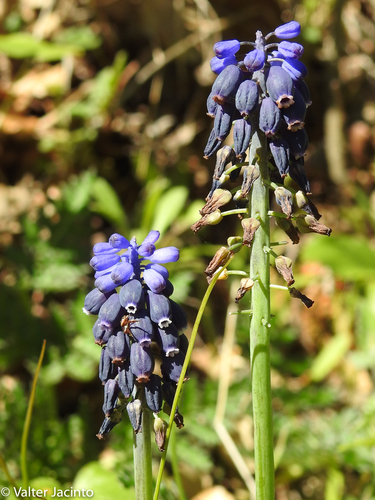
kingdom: Plantae
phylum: Tracheophyta
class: Liliopsida
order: Asparagales
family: Asparagaceae
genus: Muscari
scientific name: Muscari neglectum
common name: Grape-hyacinth
